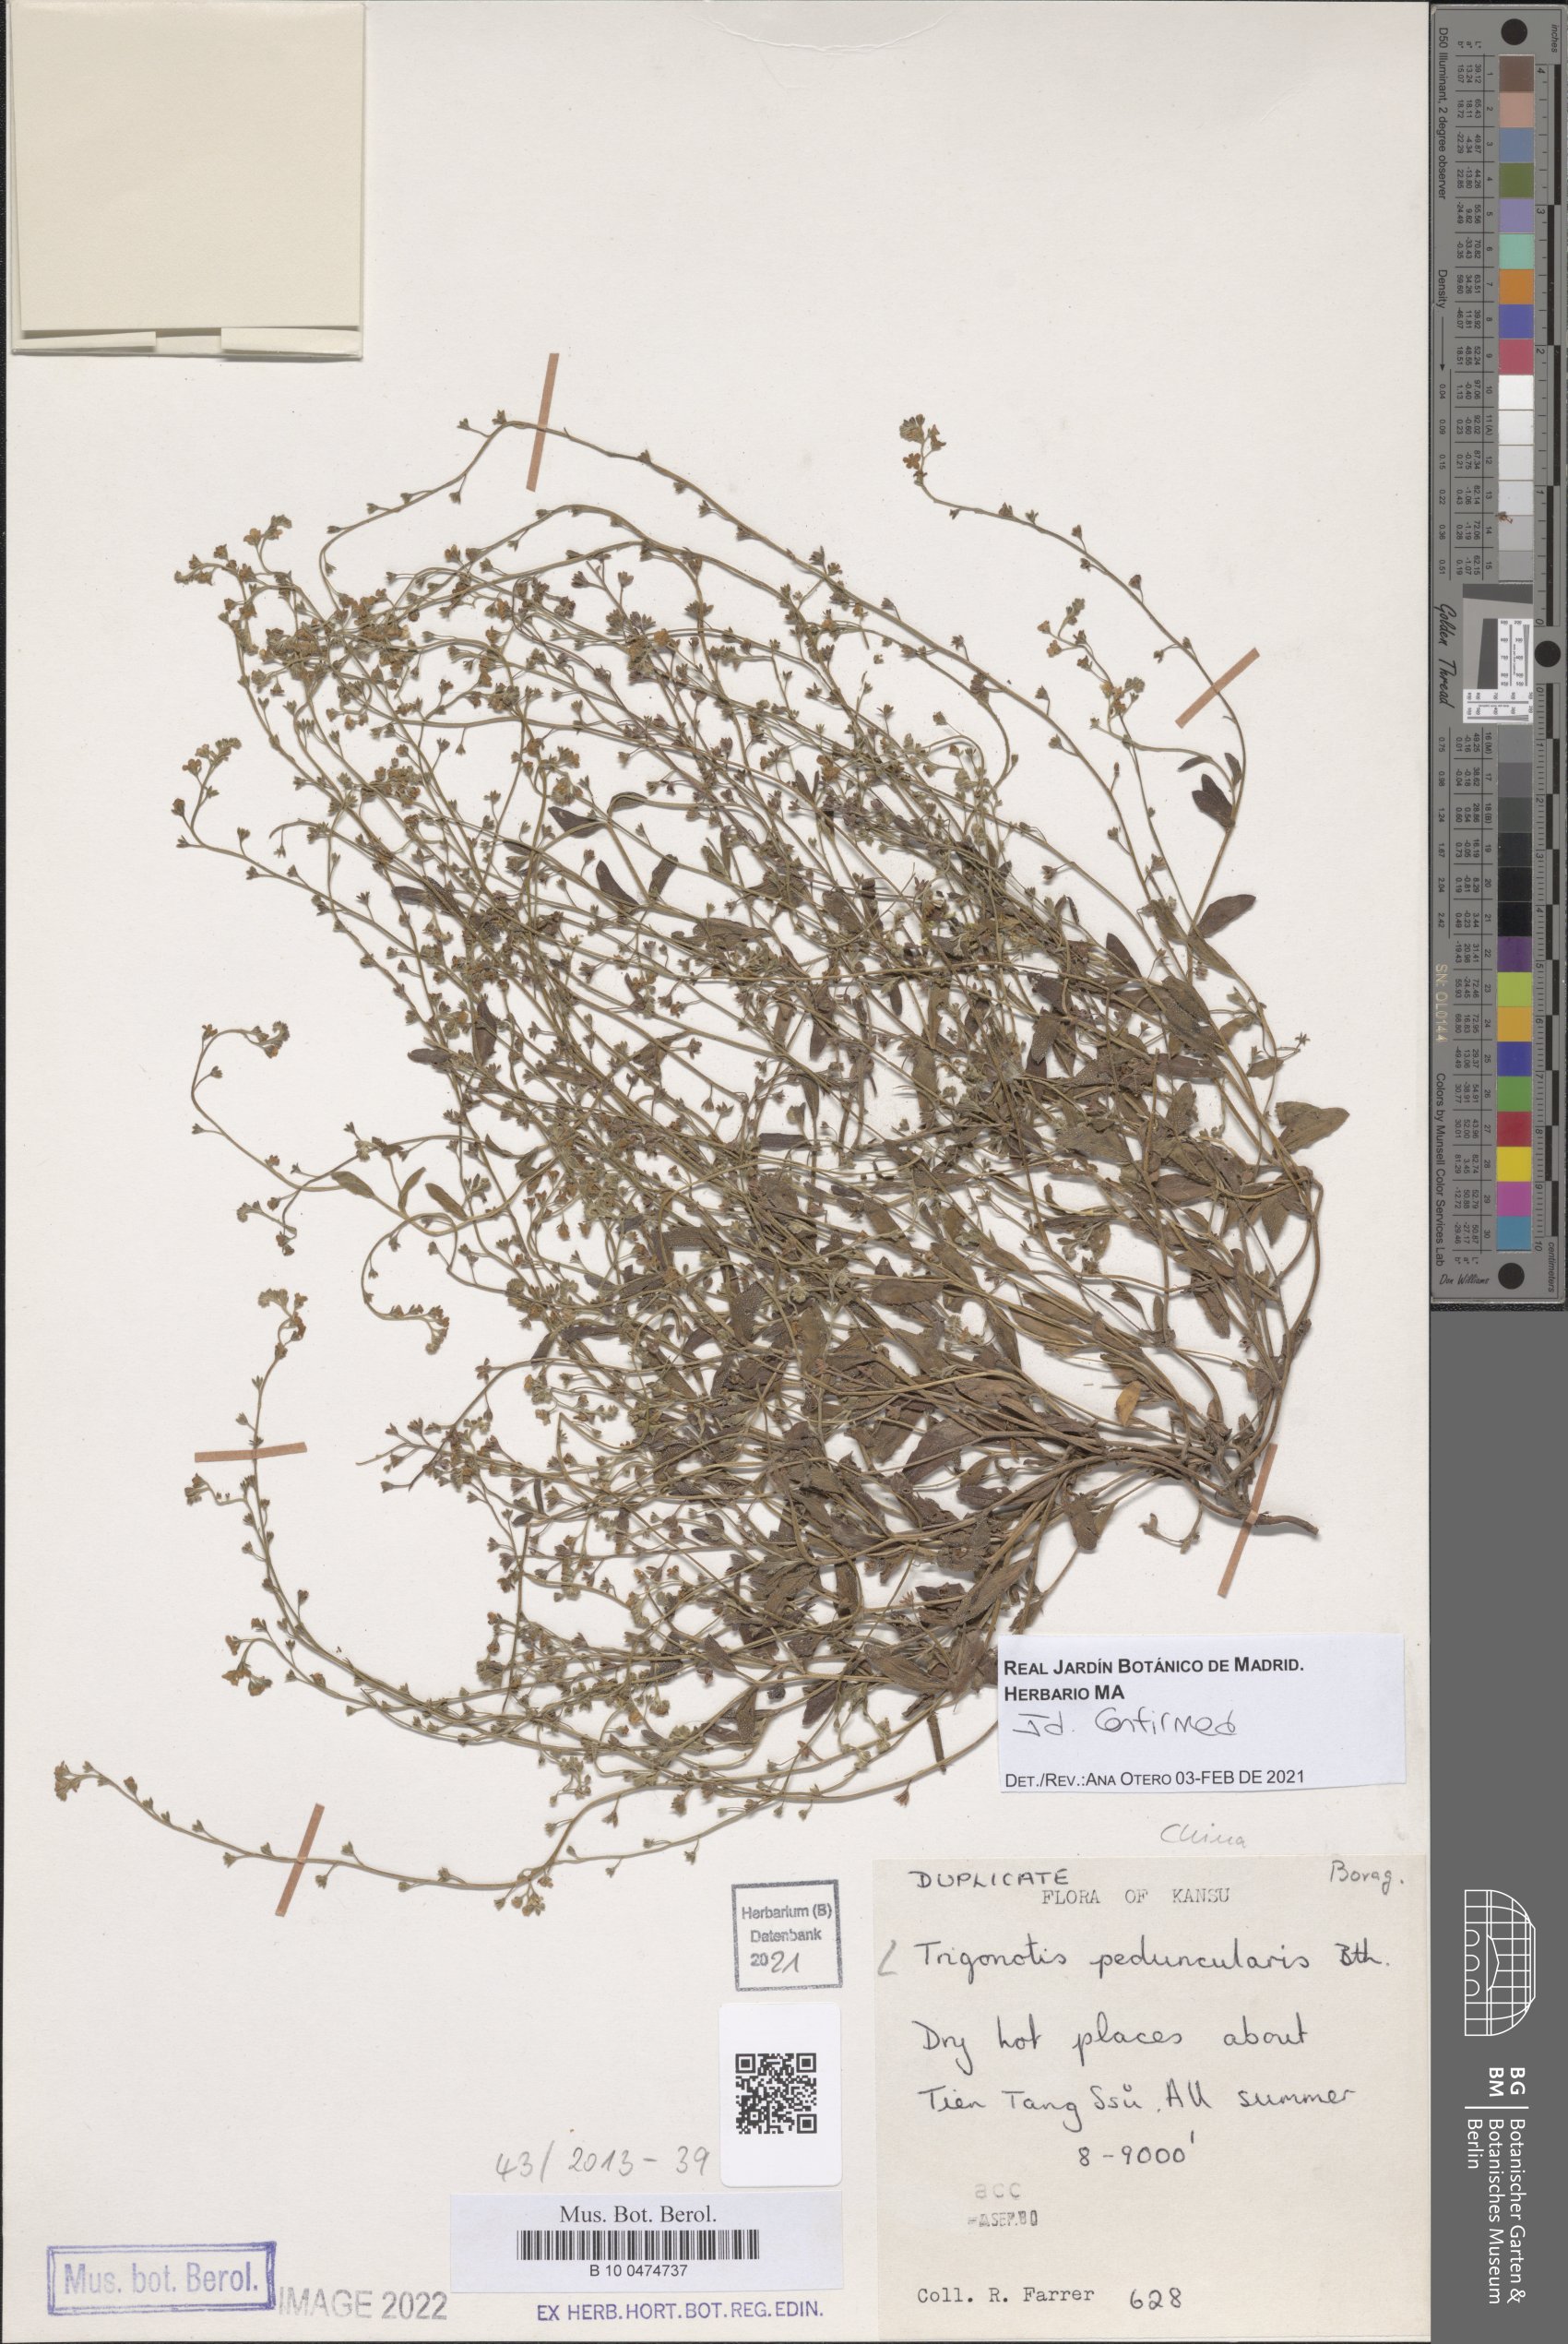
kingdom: Plantae
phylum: Tracheophyta
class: Magnoliopsida
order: Boraginales
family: Boraginaceae
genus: Trigonotis
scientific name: Trigonotis peduncularis
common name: Cucumber herb
